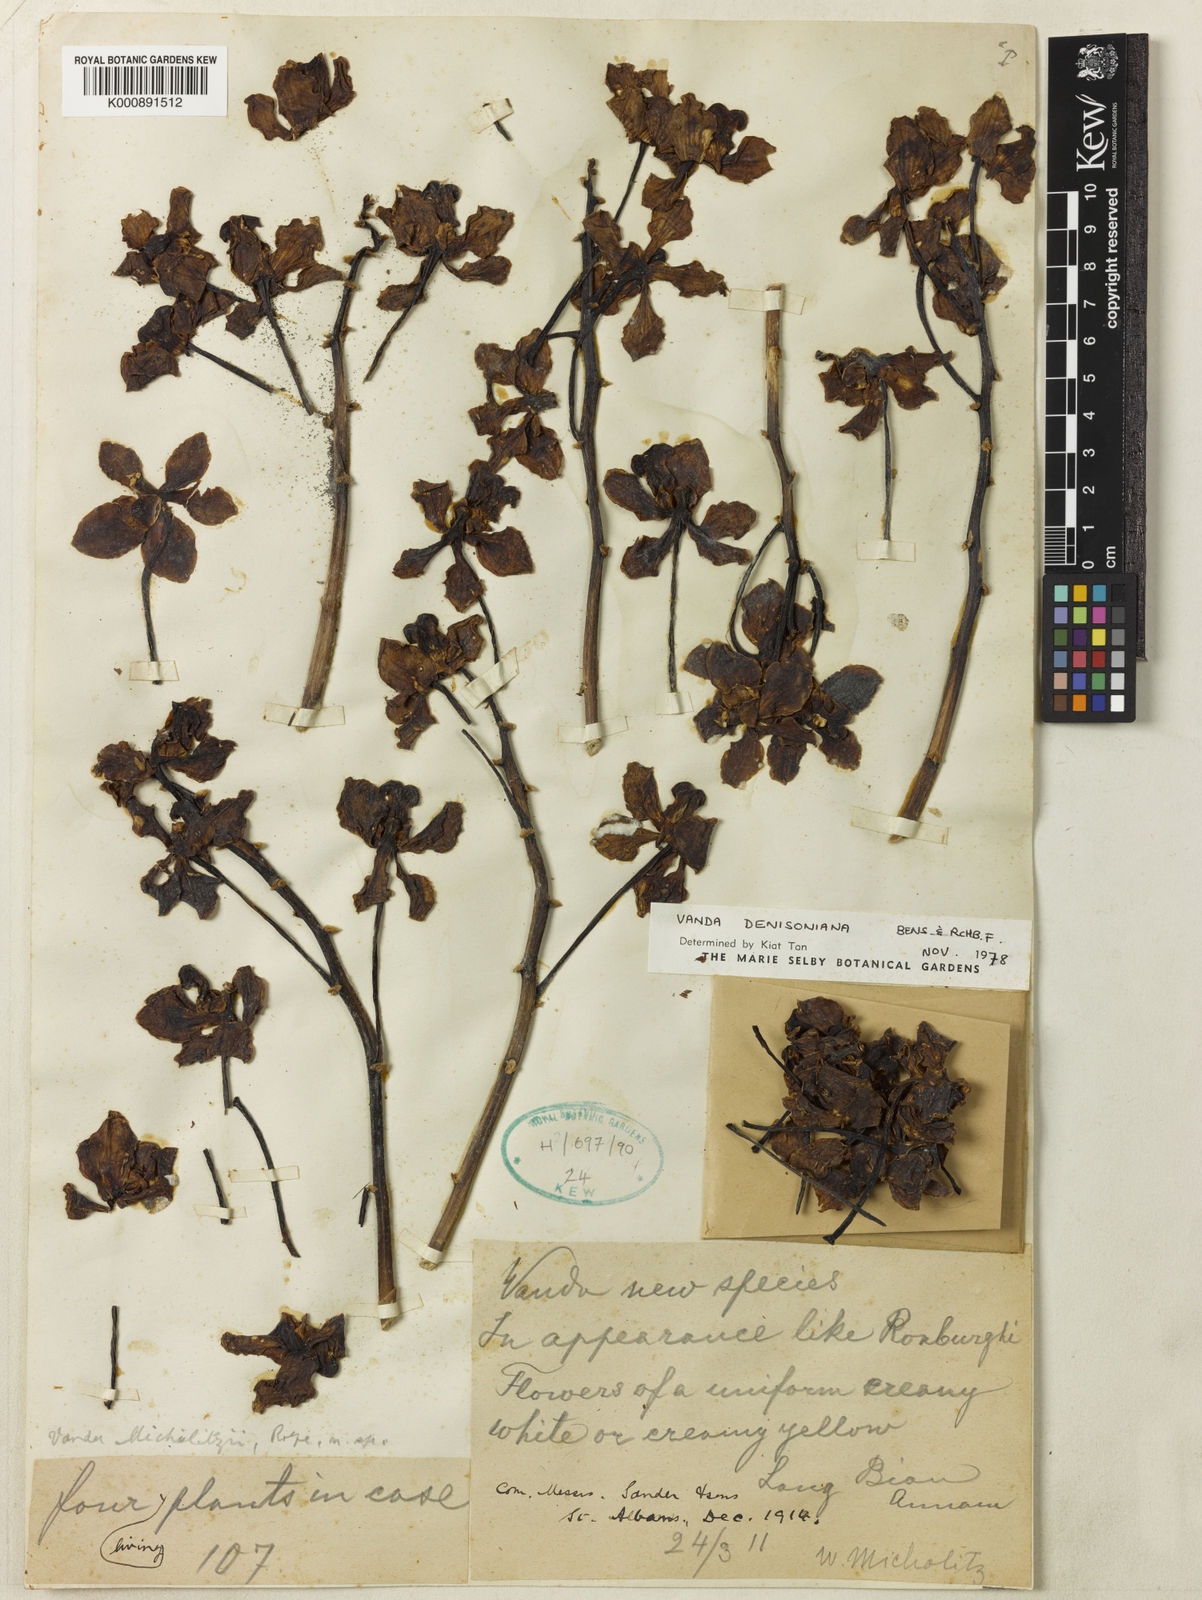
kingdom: Plantae
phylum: Tracheophyta
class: Liliopsida
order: Asparagales
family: Orchidaceae
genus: Vanda
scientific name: Vanda denisoniana
